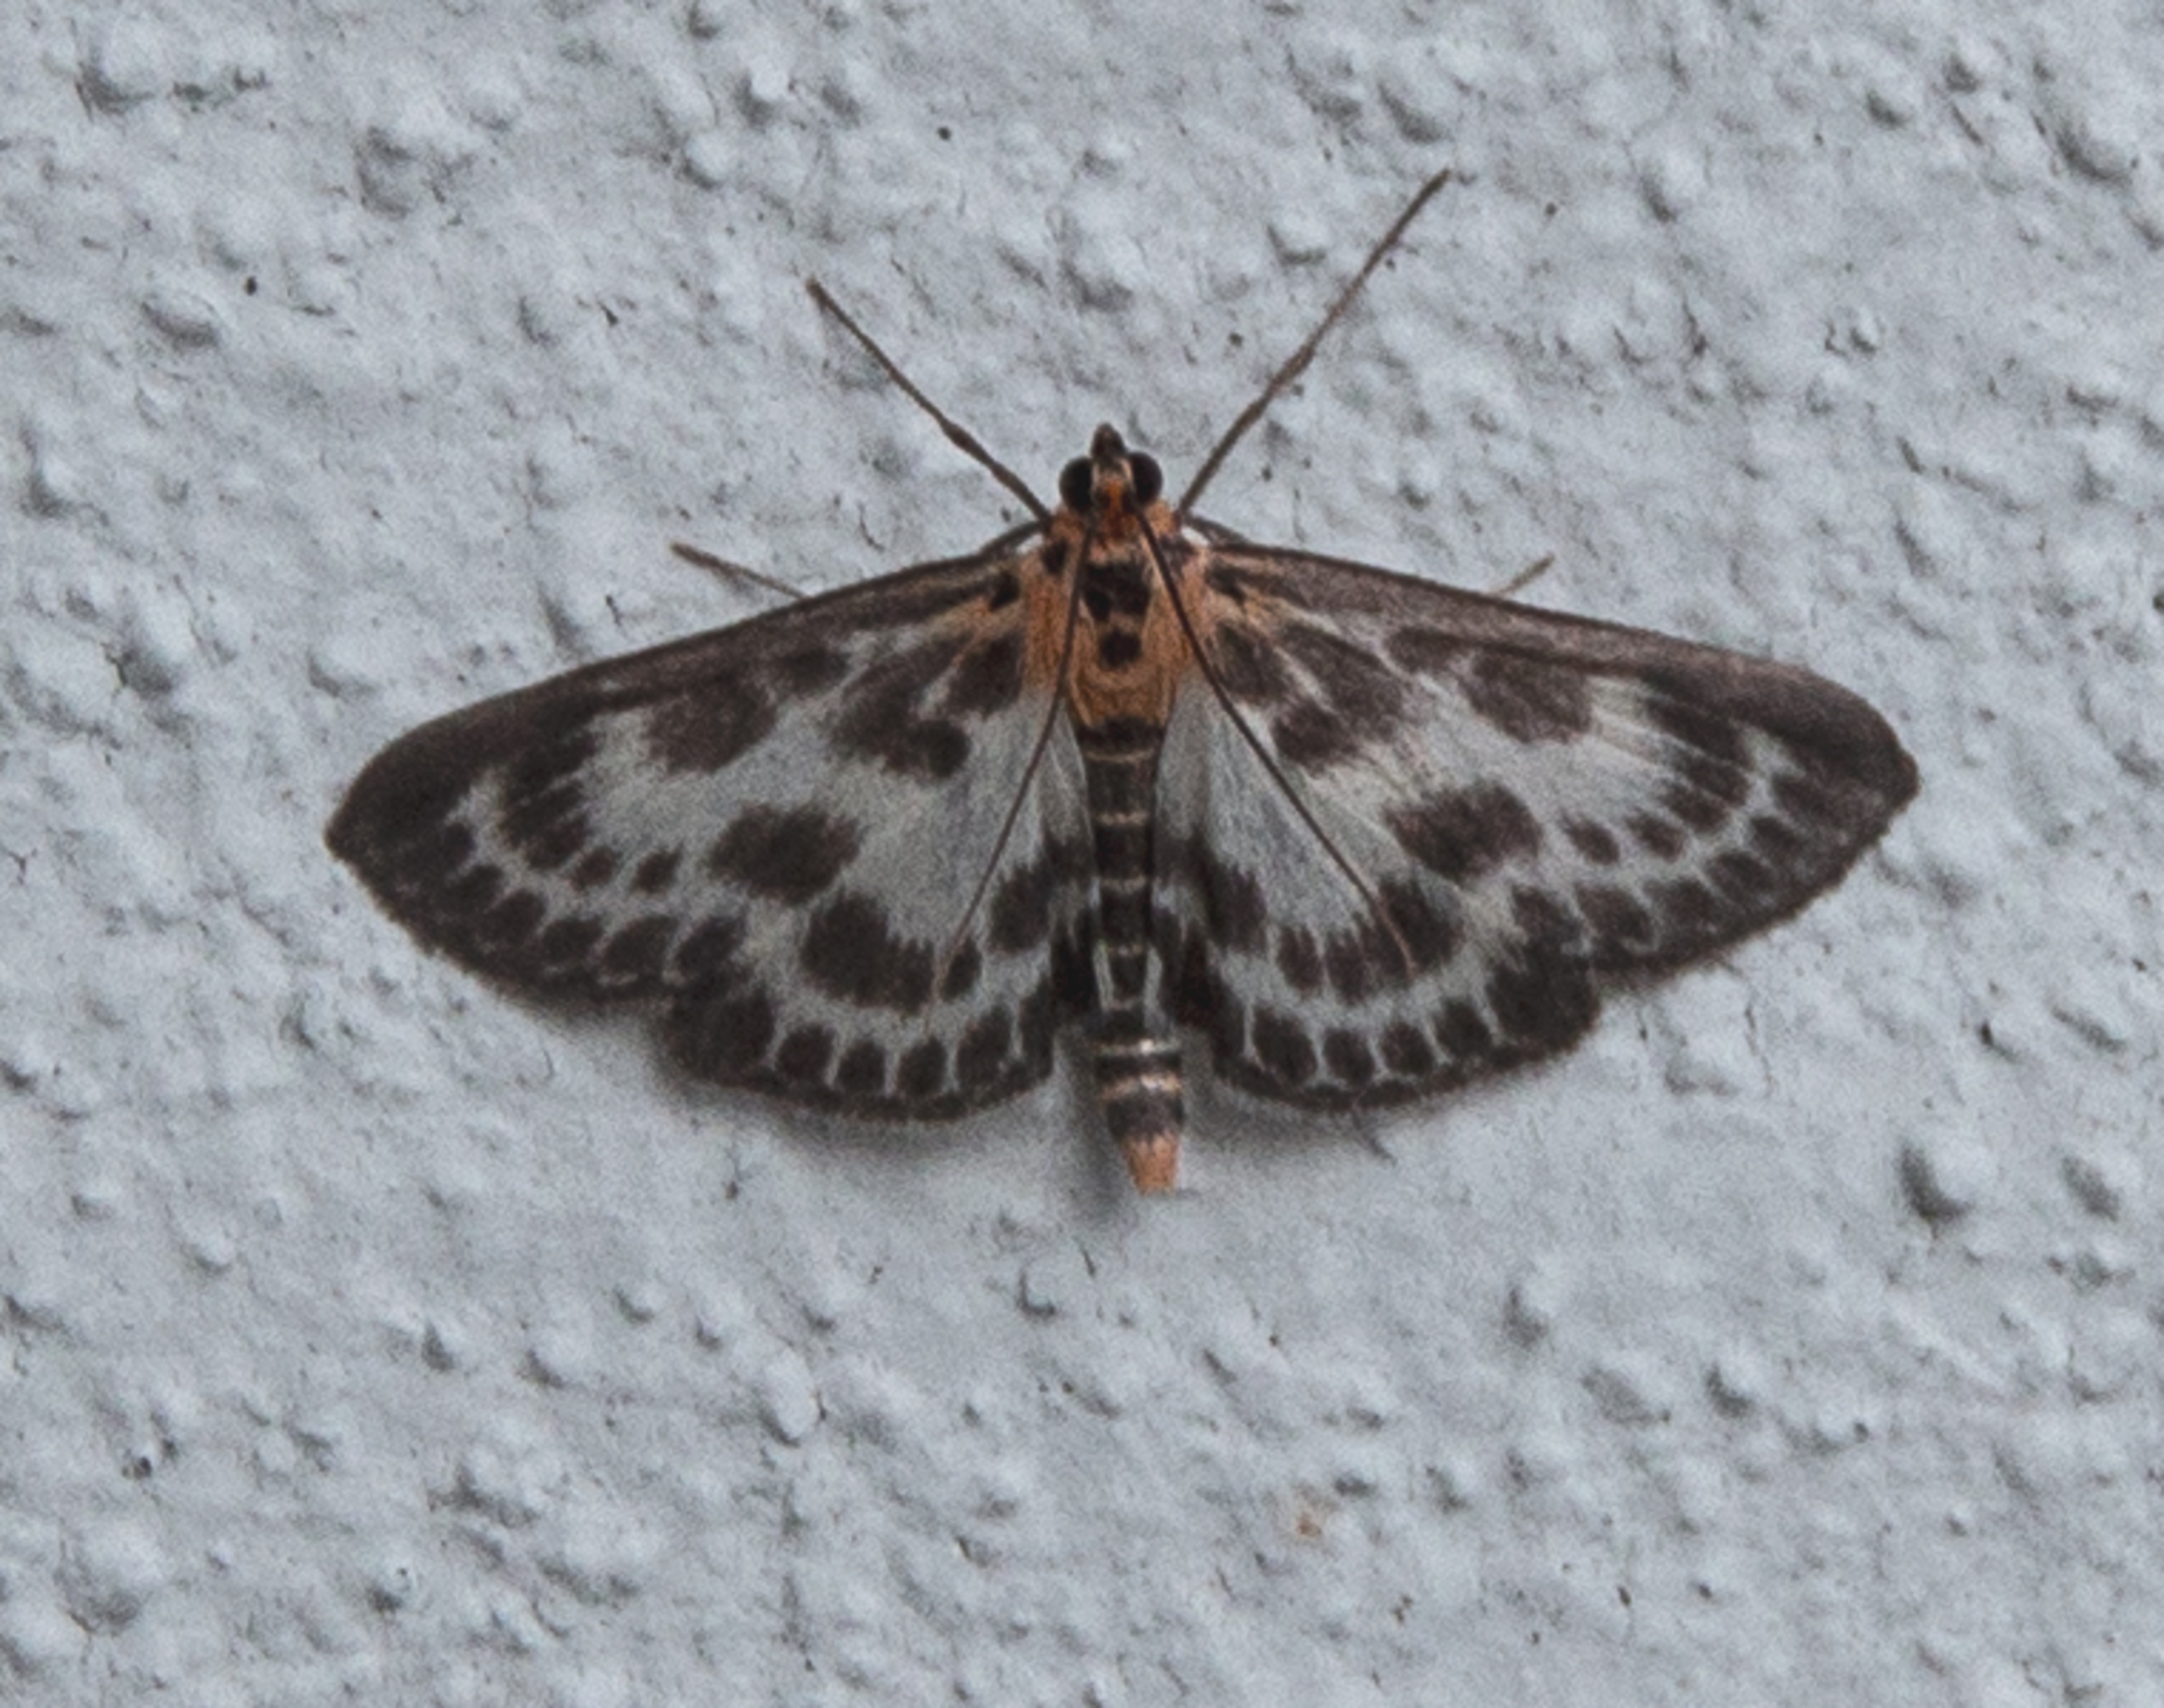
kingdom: Animalia
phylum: Arthropoda
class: Insecta
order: Lepidoptera
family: Crambidae
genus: Anania
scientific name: Anania hortulata
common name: Nældehalvmøl
